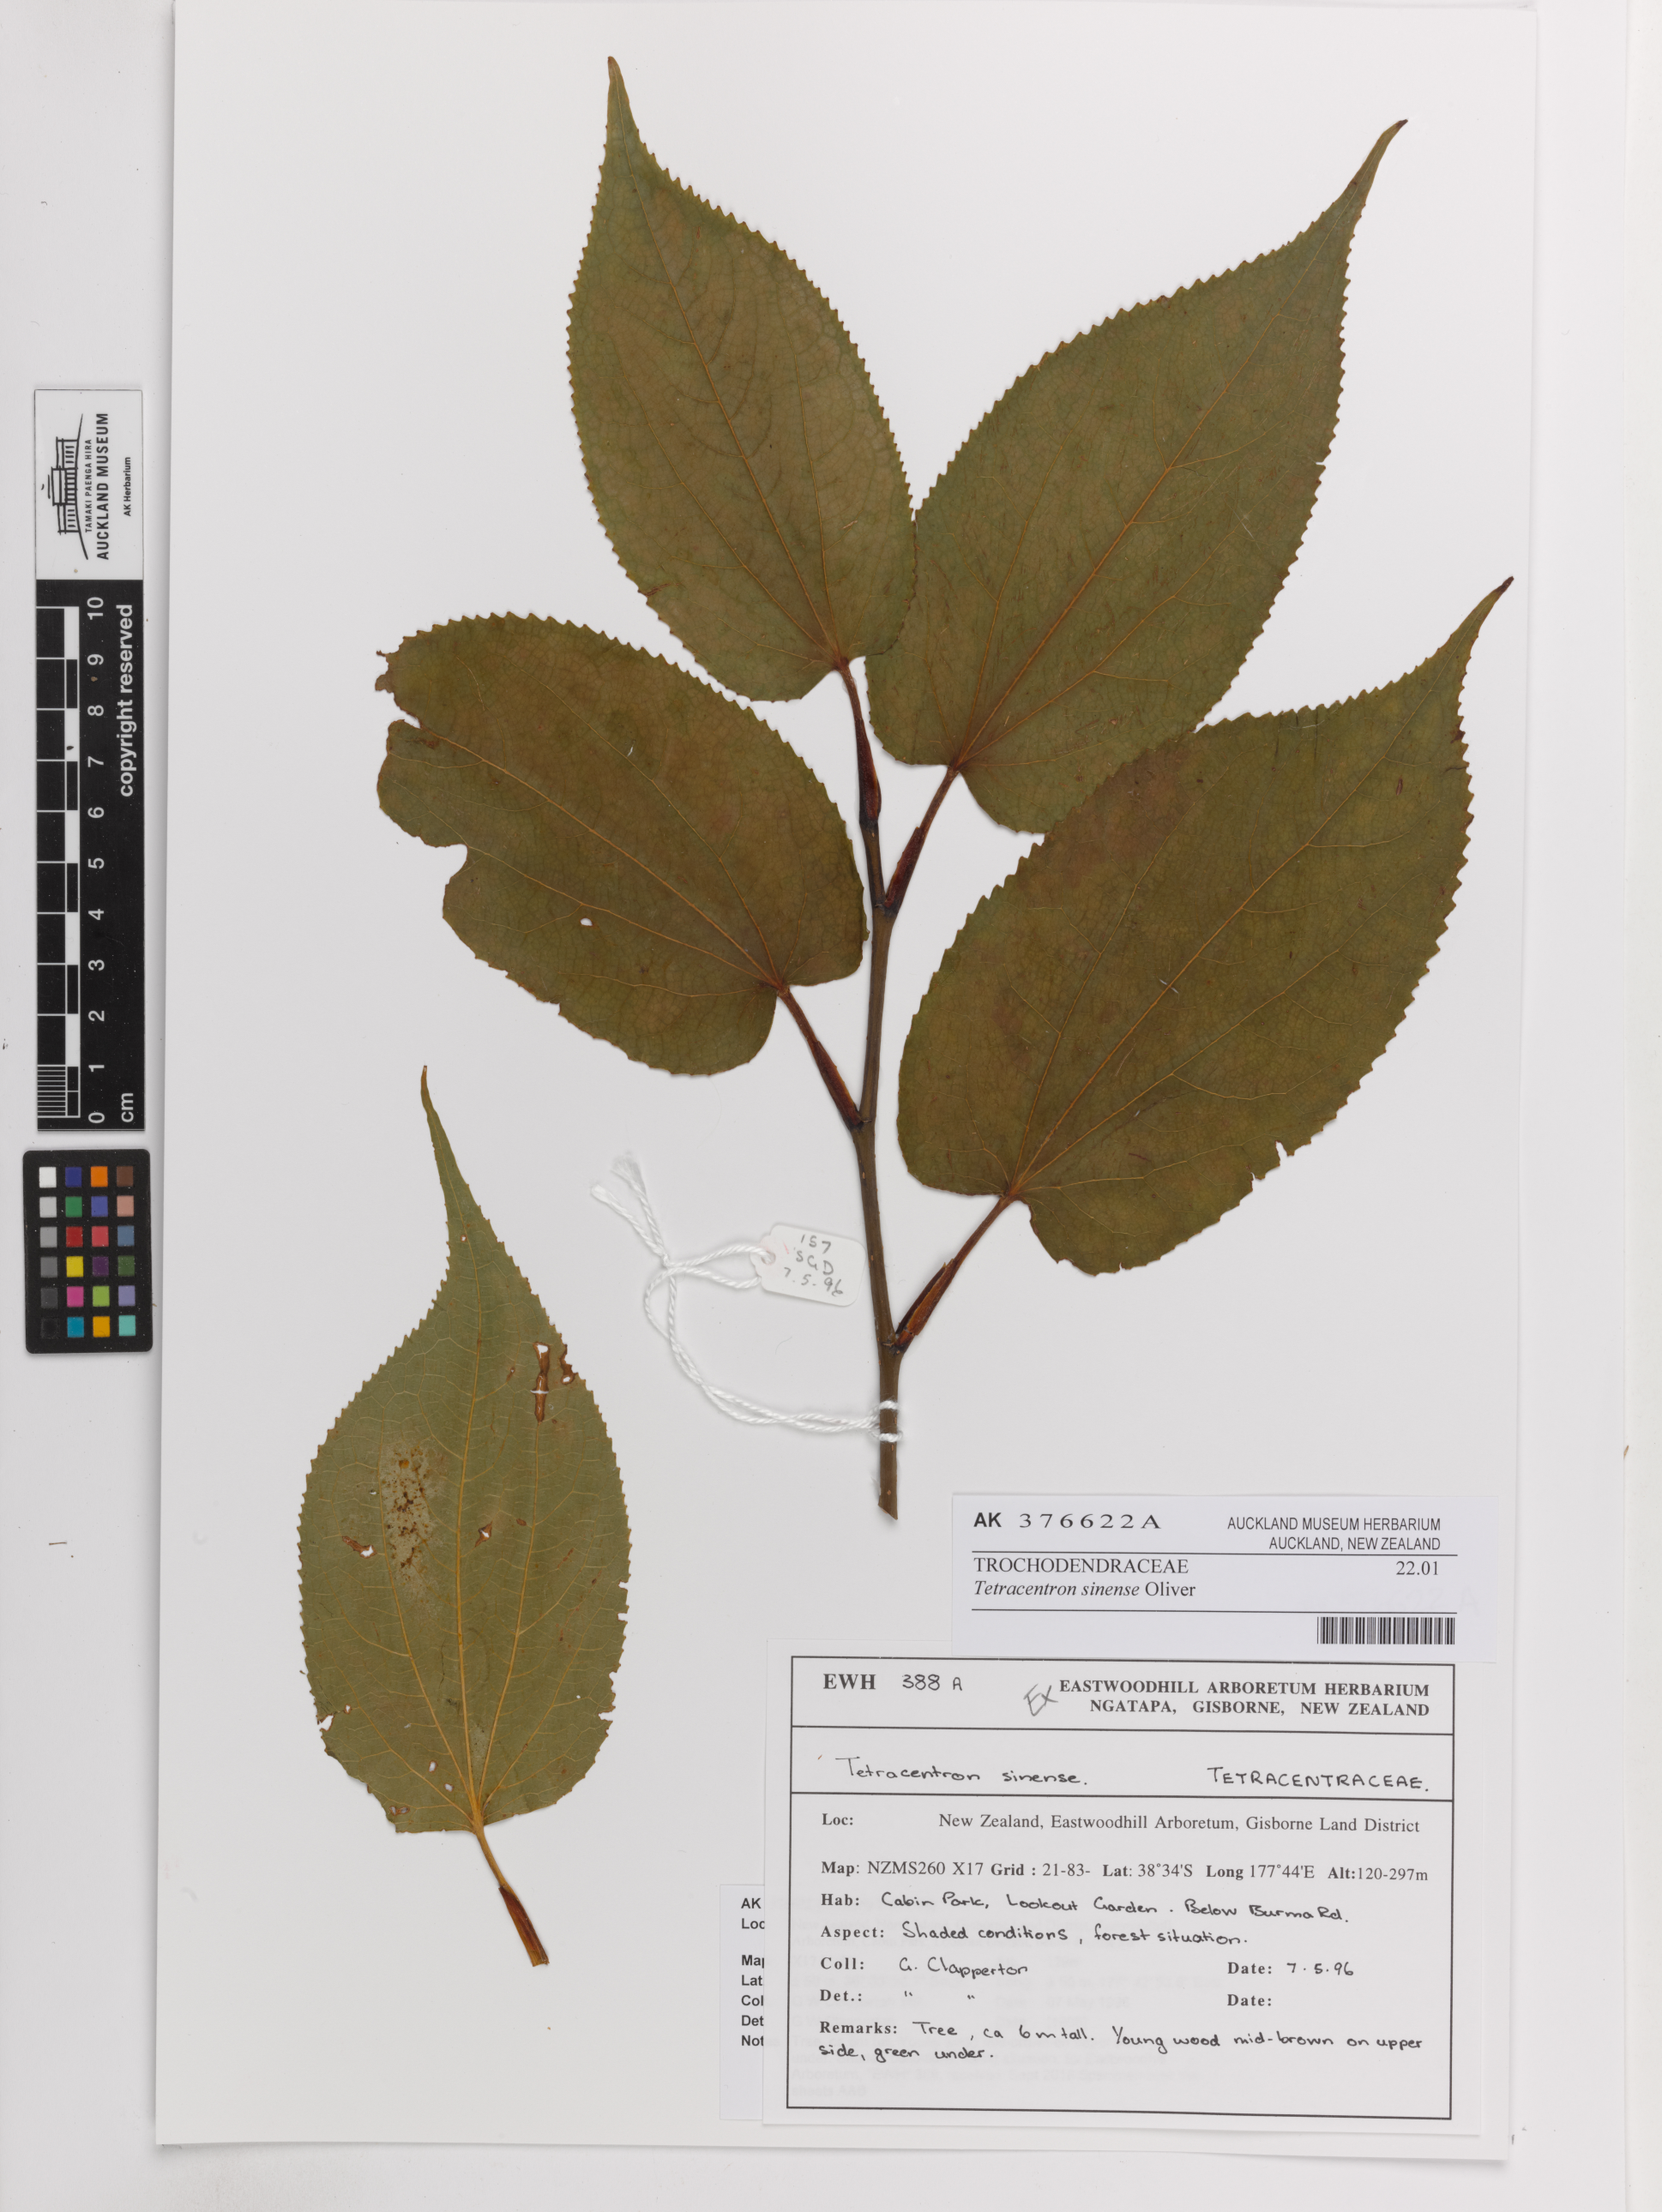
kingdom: Plantae
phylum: Tracheophyta
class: Magnoliopsida
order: Trochodendrales
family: Trochodendraceae
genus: Tetracentron
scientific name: Tetracentron sinense
